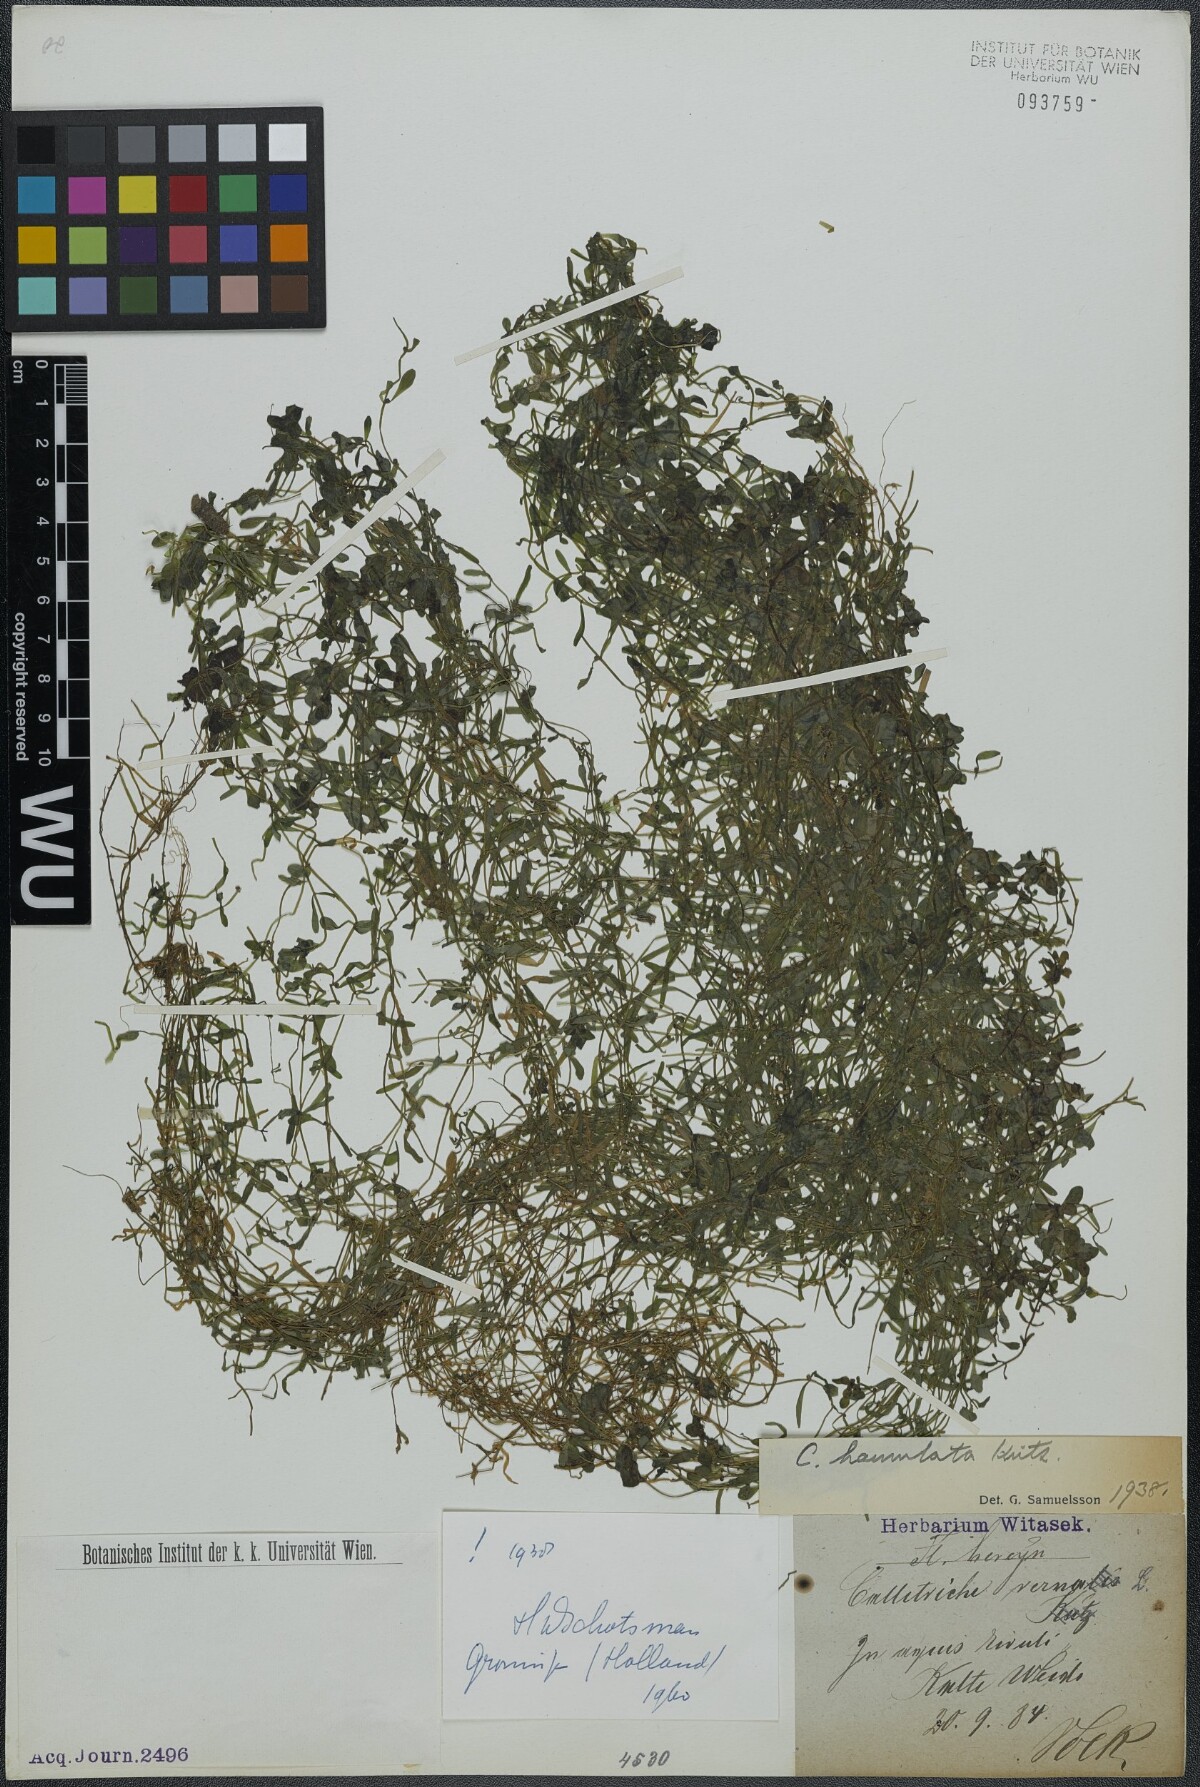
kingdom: Plantae
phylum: Tracheophyta
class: Magnoliopsida
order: Lamiales
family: Plantaginaceae
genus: Callitriche
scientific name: Callitriche hamulata
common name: Intermediate water-starwort
